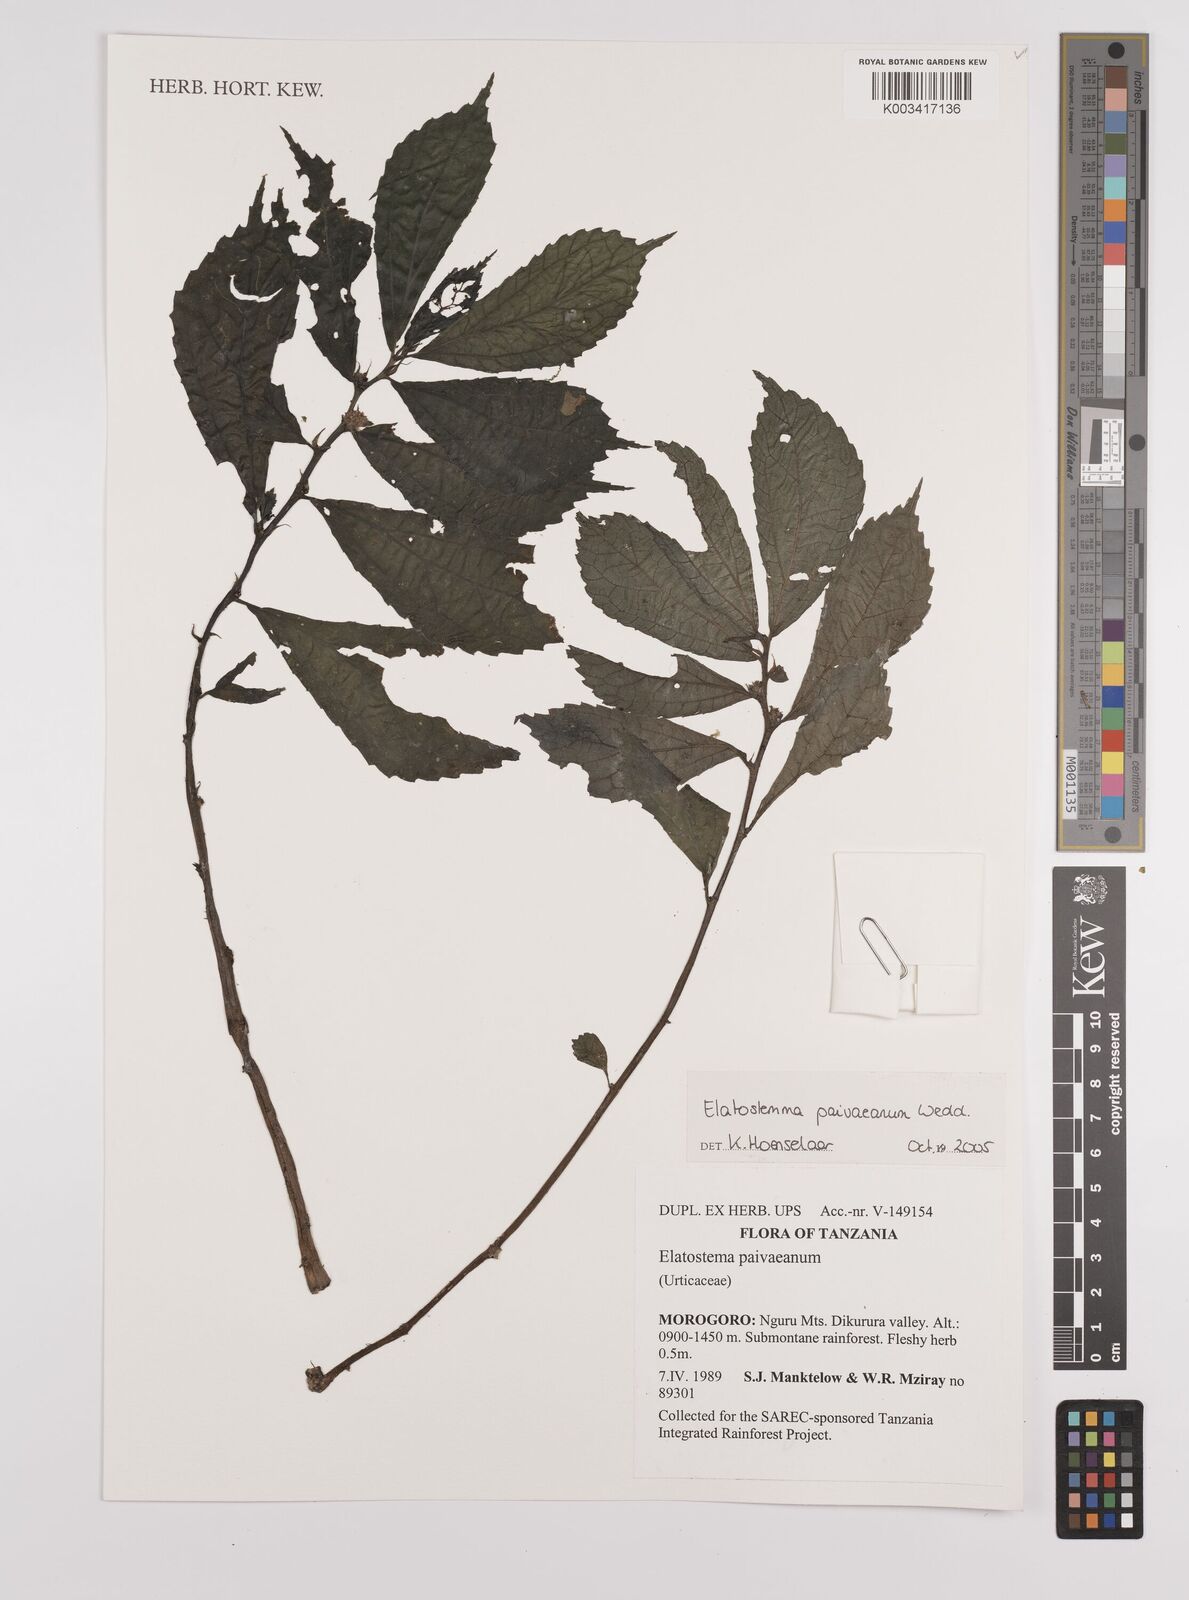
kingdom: Plantae
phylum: Tracheophyta
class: Magnoliopsida
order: Rosales
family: Urticaceae
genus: Elatostema
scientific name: Elatostema paivaeanum
